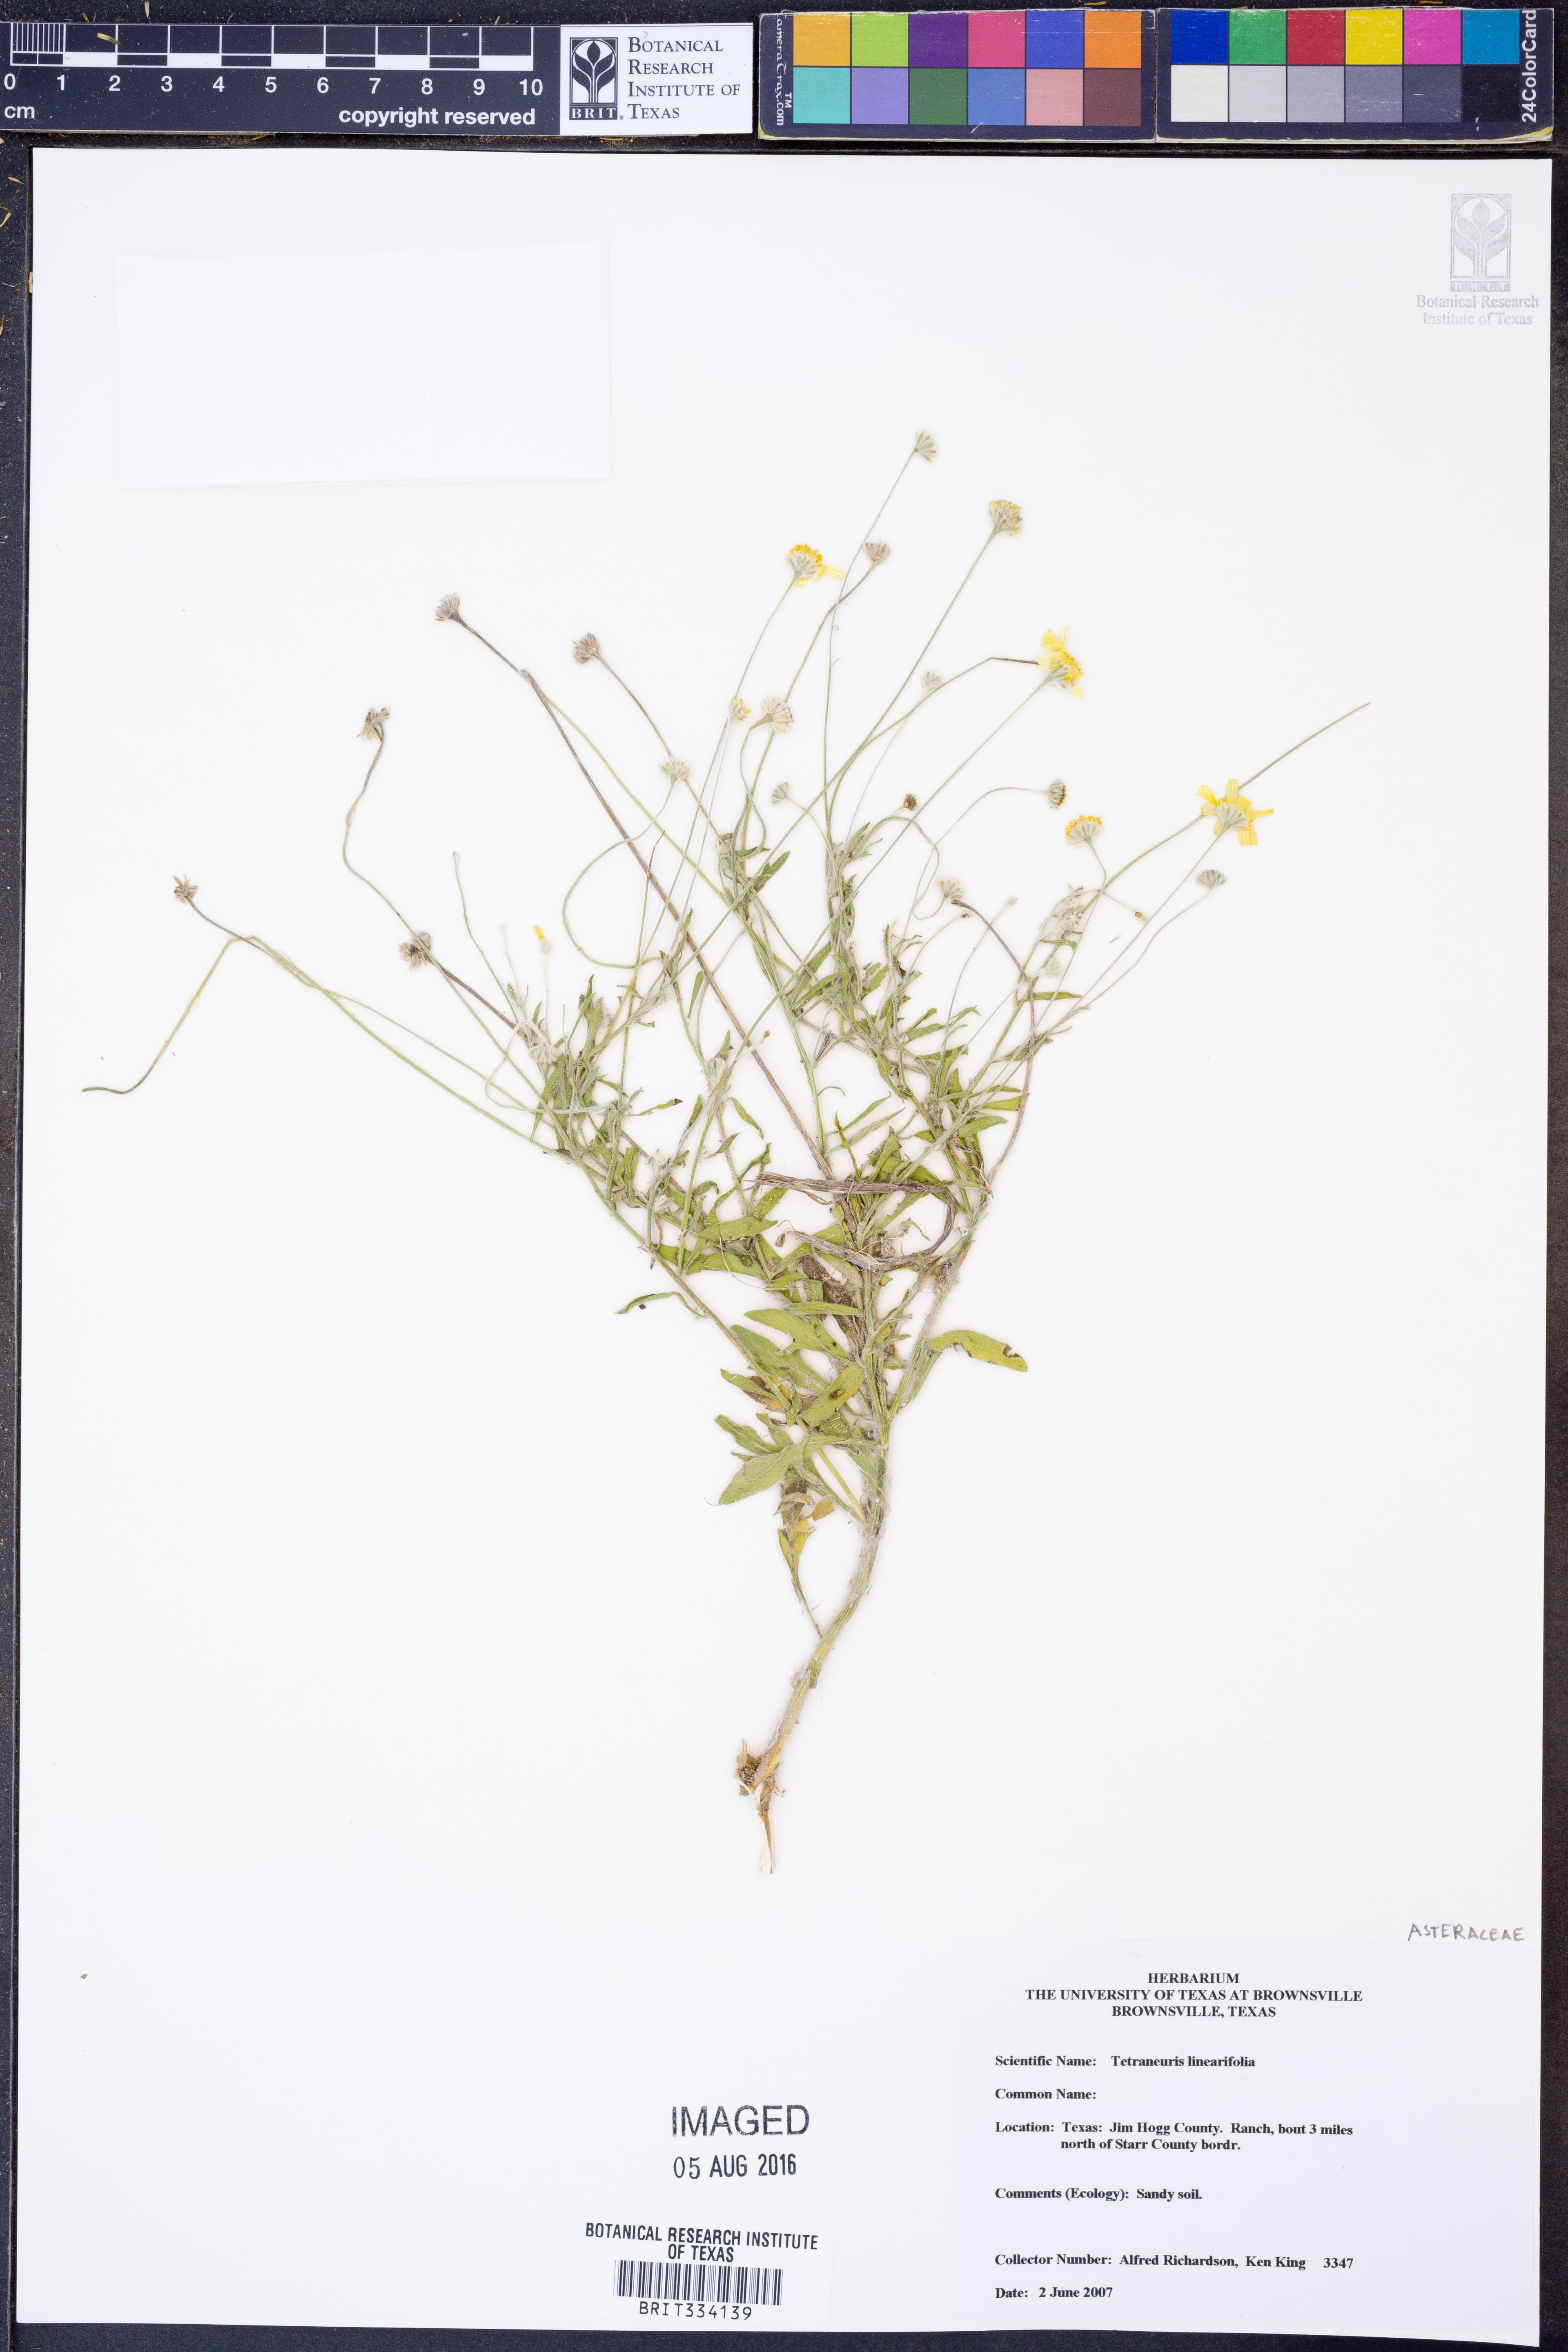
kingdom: Plantae
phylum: Tracheophyta
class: Magnoliopsida
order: Asterales
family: Asteraceae
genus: Tetraneuris
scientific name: Tetraneuris linearifolia
